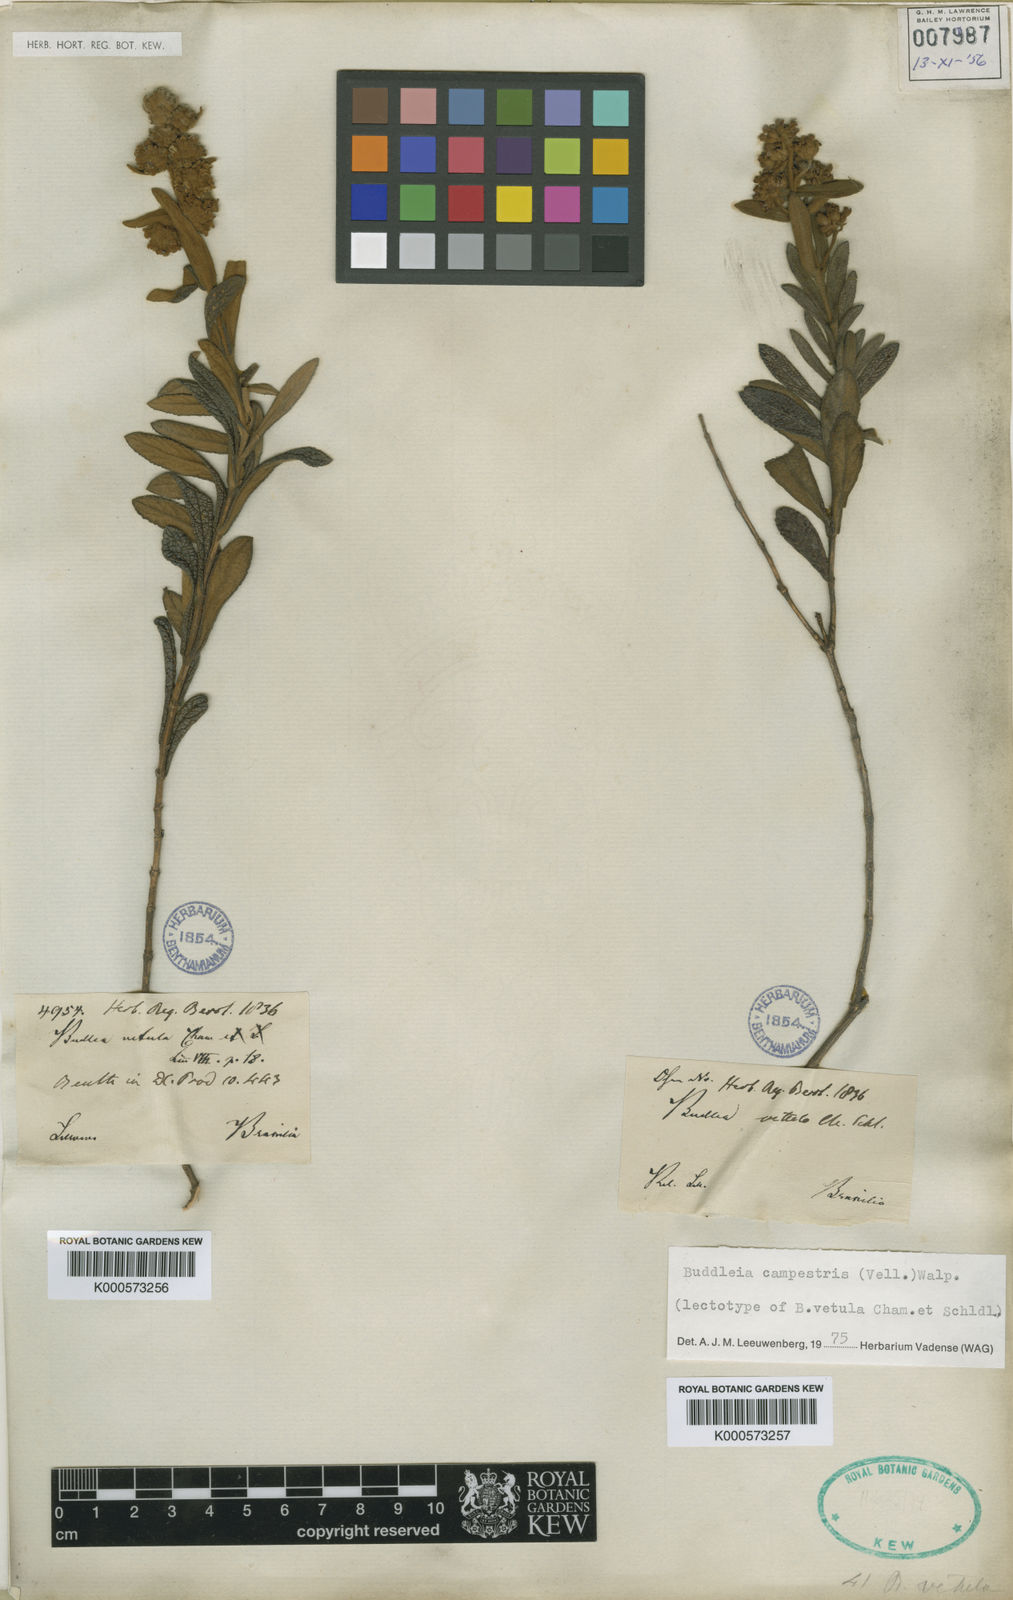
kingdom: Plantae
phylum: Tracheophyta
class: Magnoliopsida
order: Lamiales
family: Scrophulariaceae
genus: Buddleja
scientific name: Buddleja elegans
